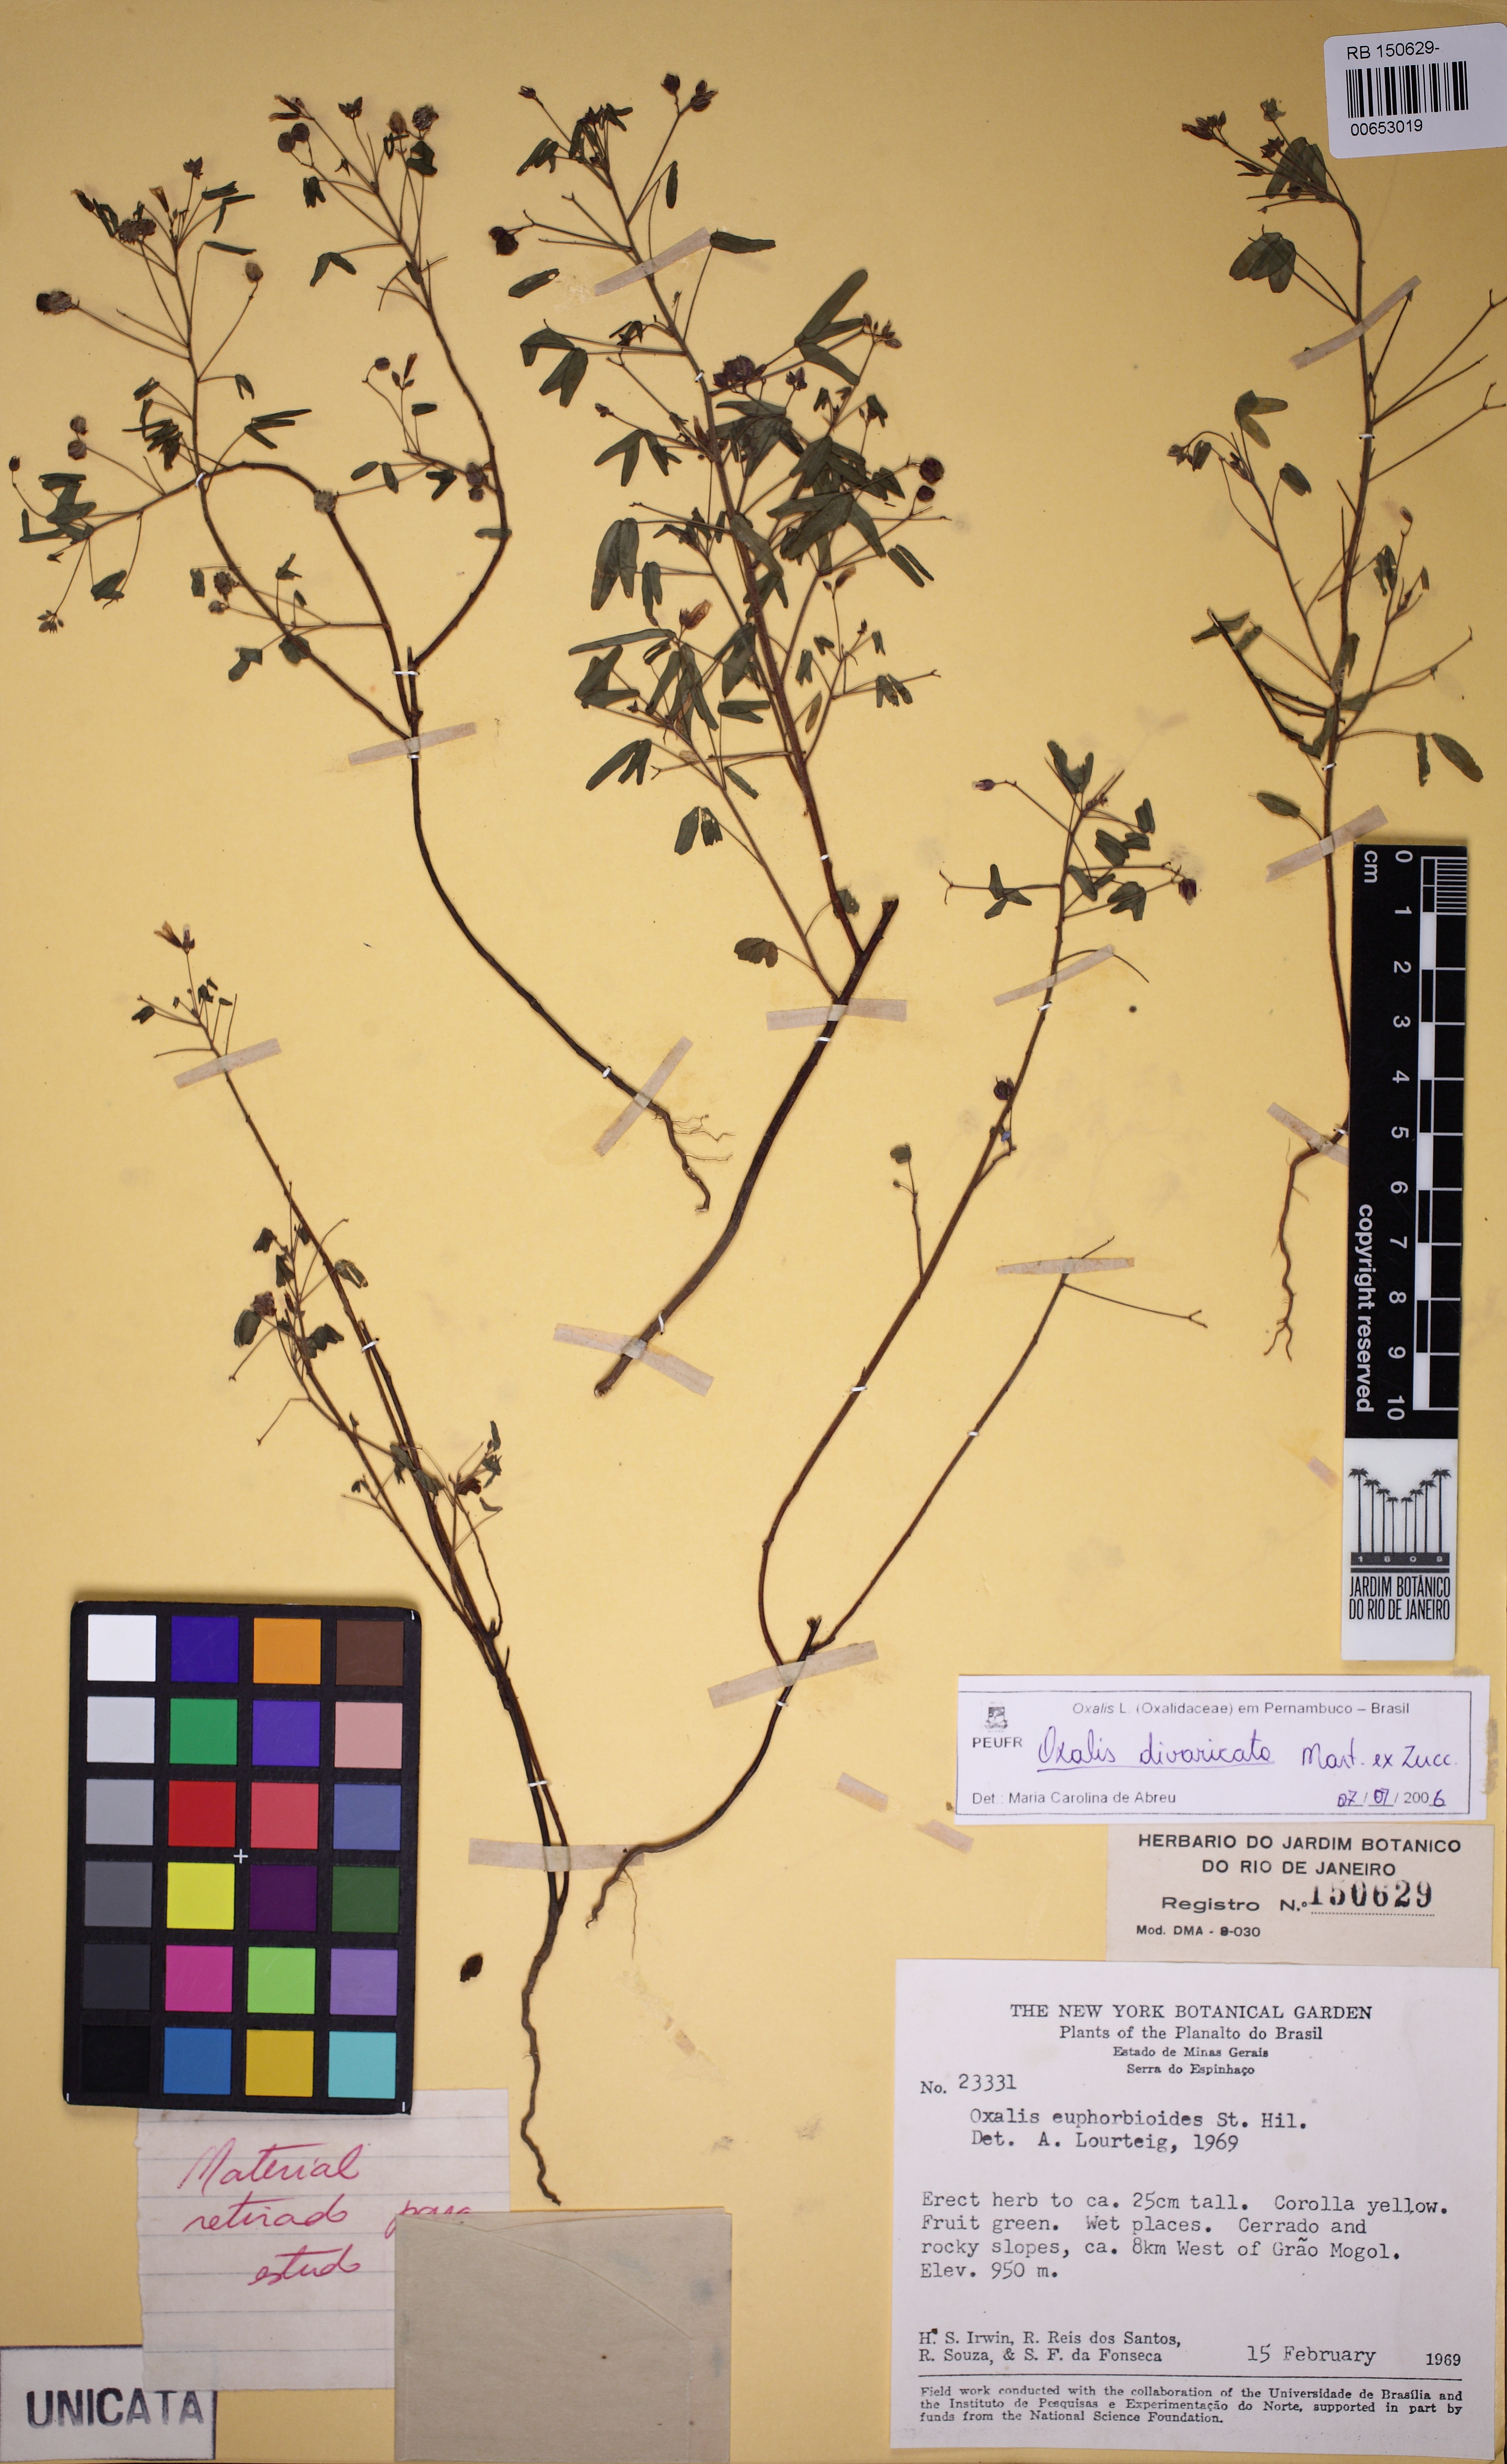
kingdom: Plantae
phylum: Tracheophyta
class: Magnoliopsida
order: Oxalidales
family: Oxalidaceae
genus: Oxalis
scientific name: Oxalis divaricata
